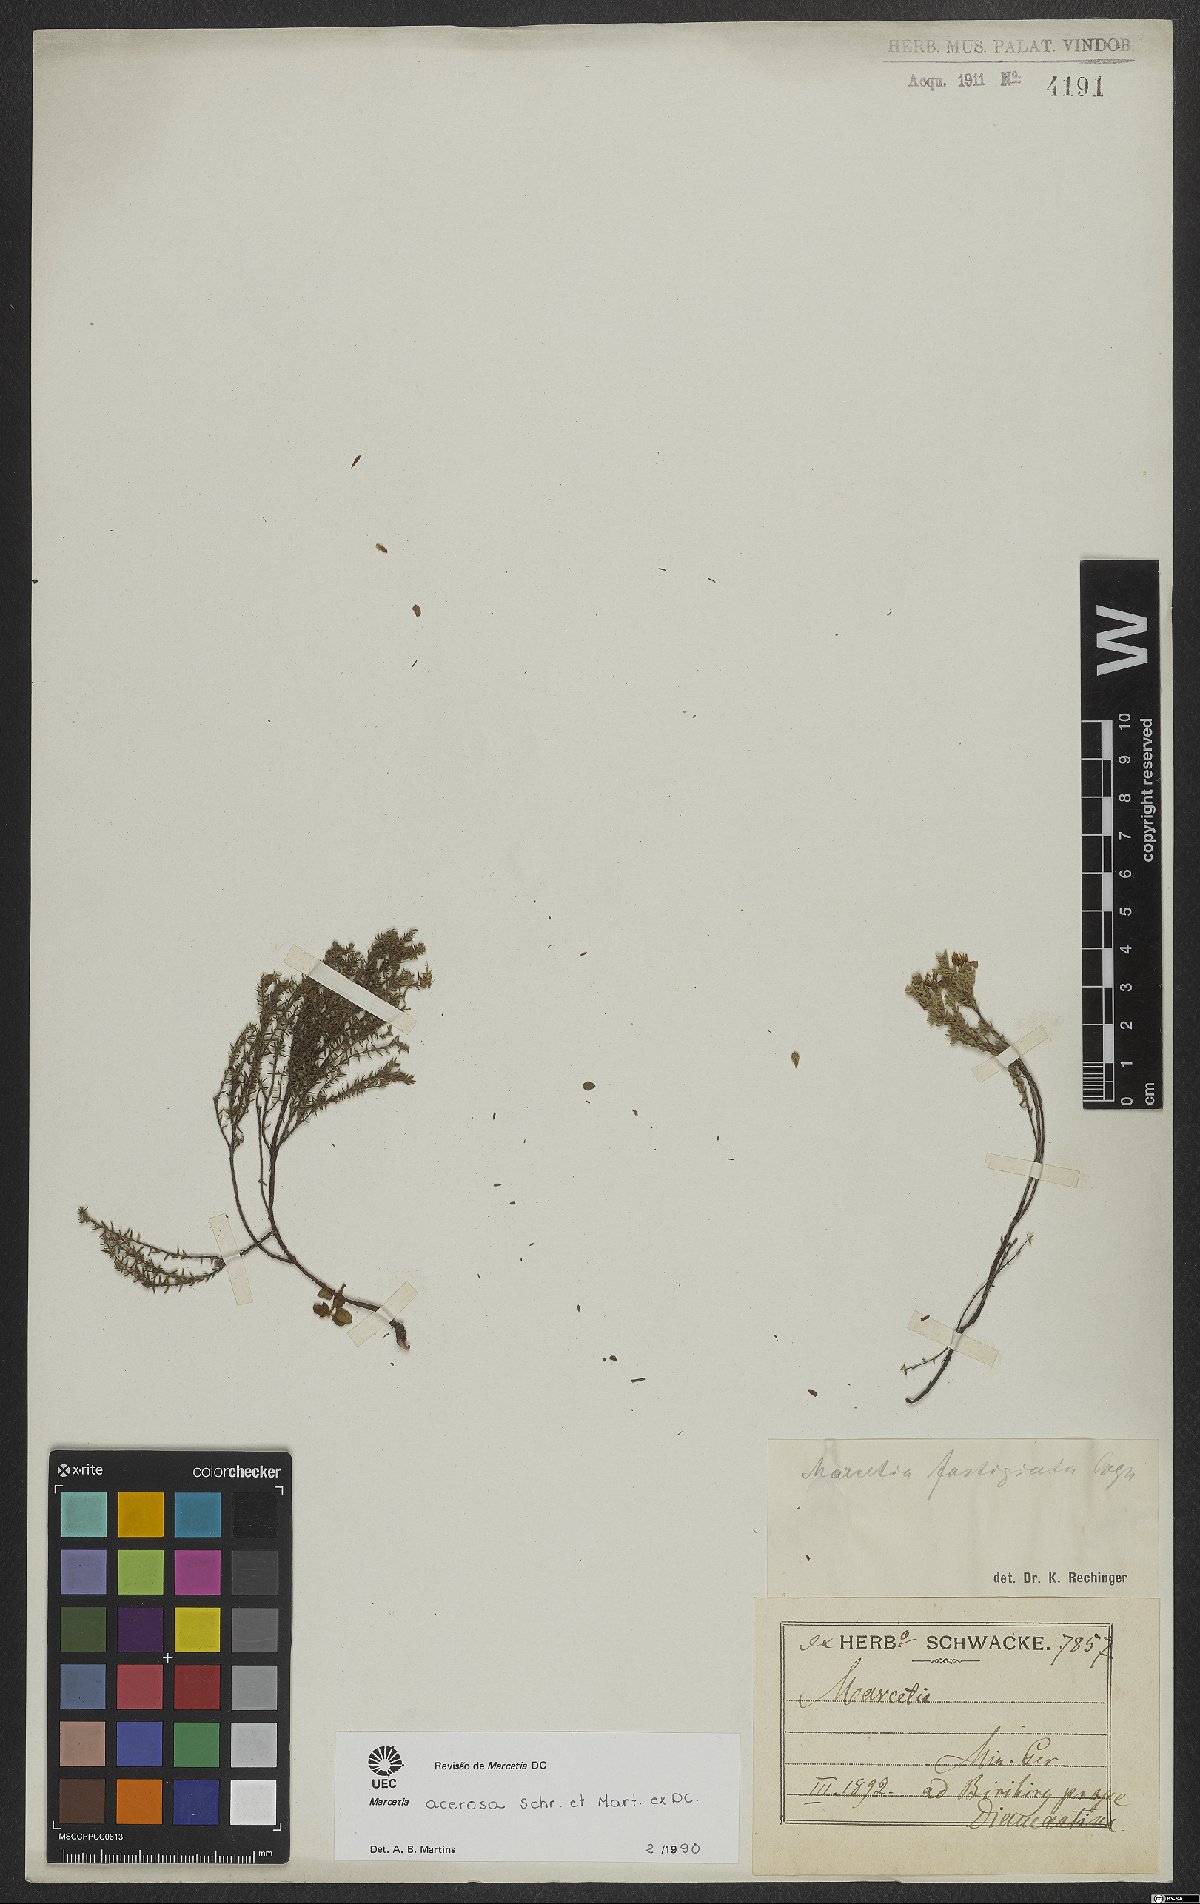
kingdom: Plantae
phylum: Tracheophyta
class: Magnoliopsida
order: Myrtales
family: Melastomataceae
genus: Marcetia
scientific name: Marcetia acerosa
